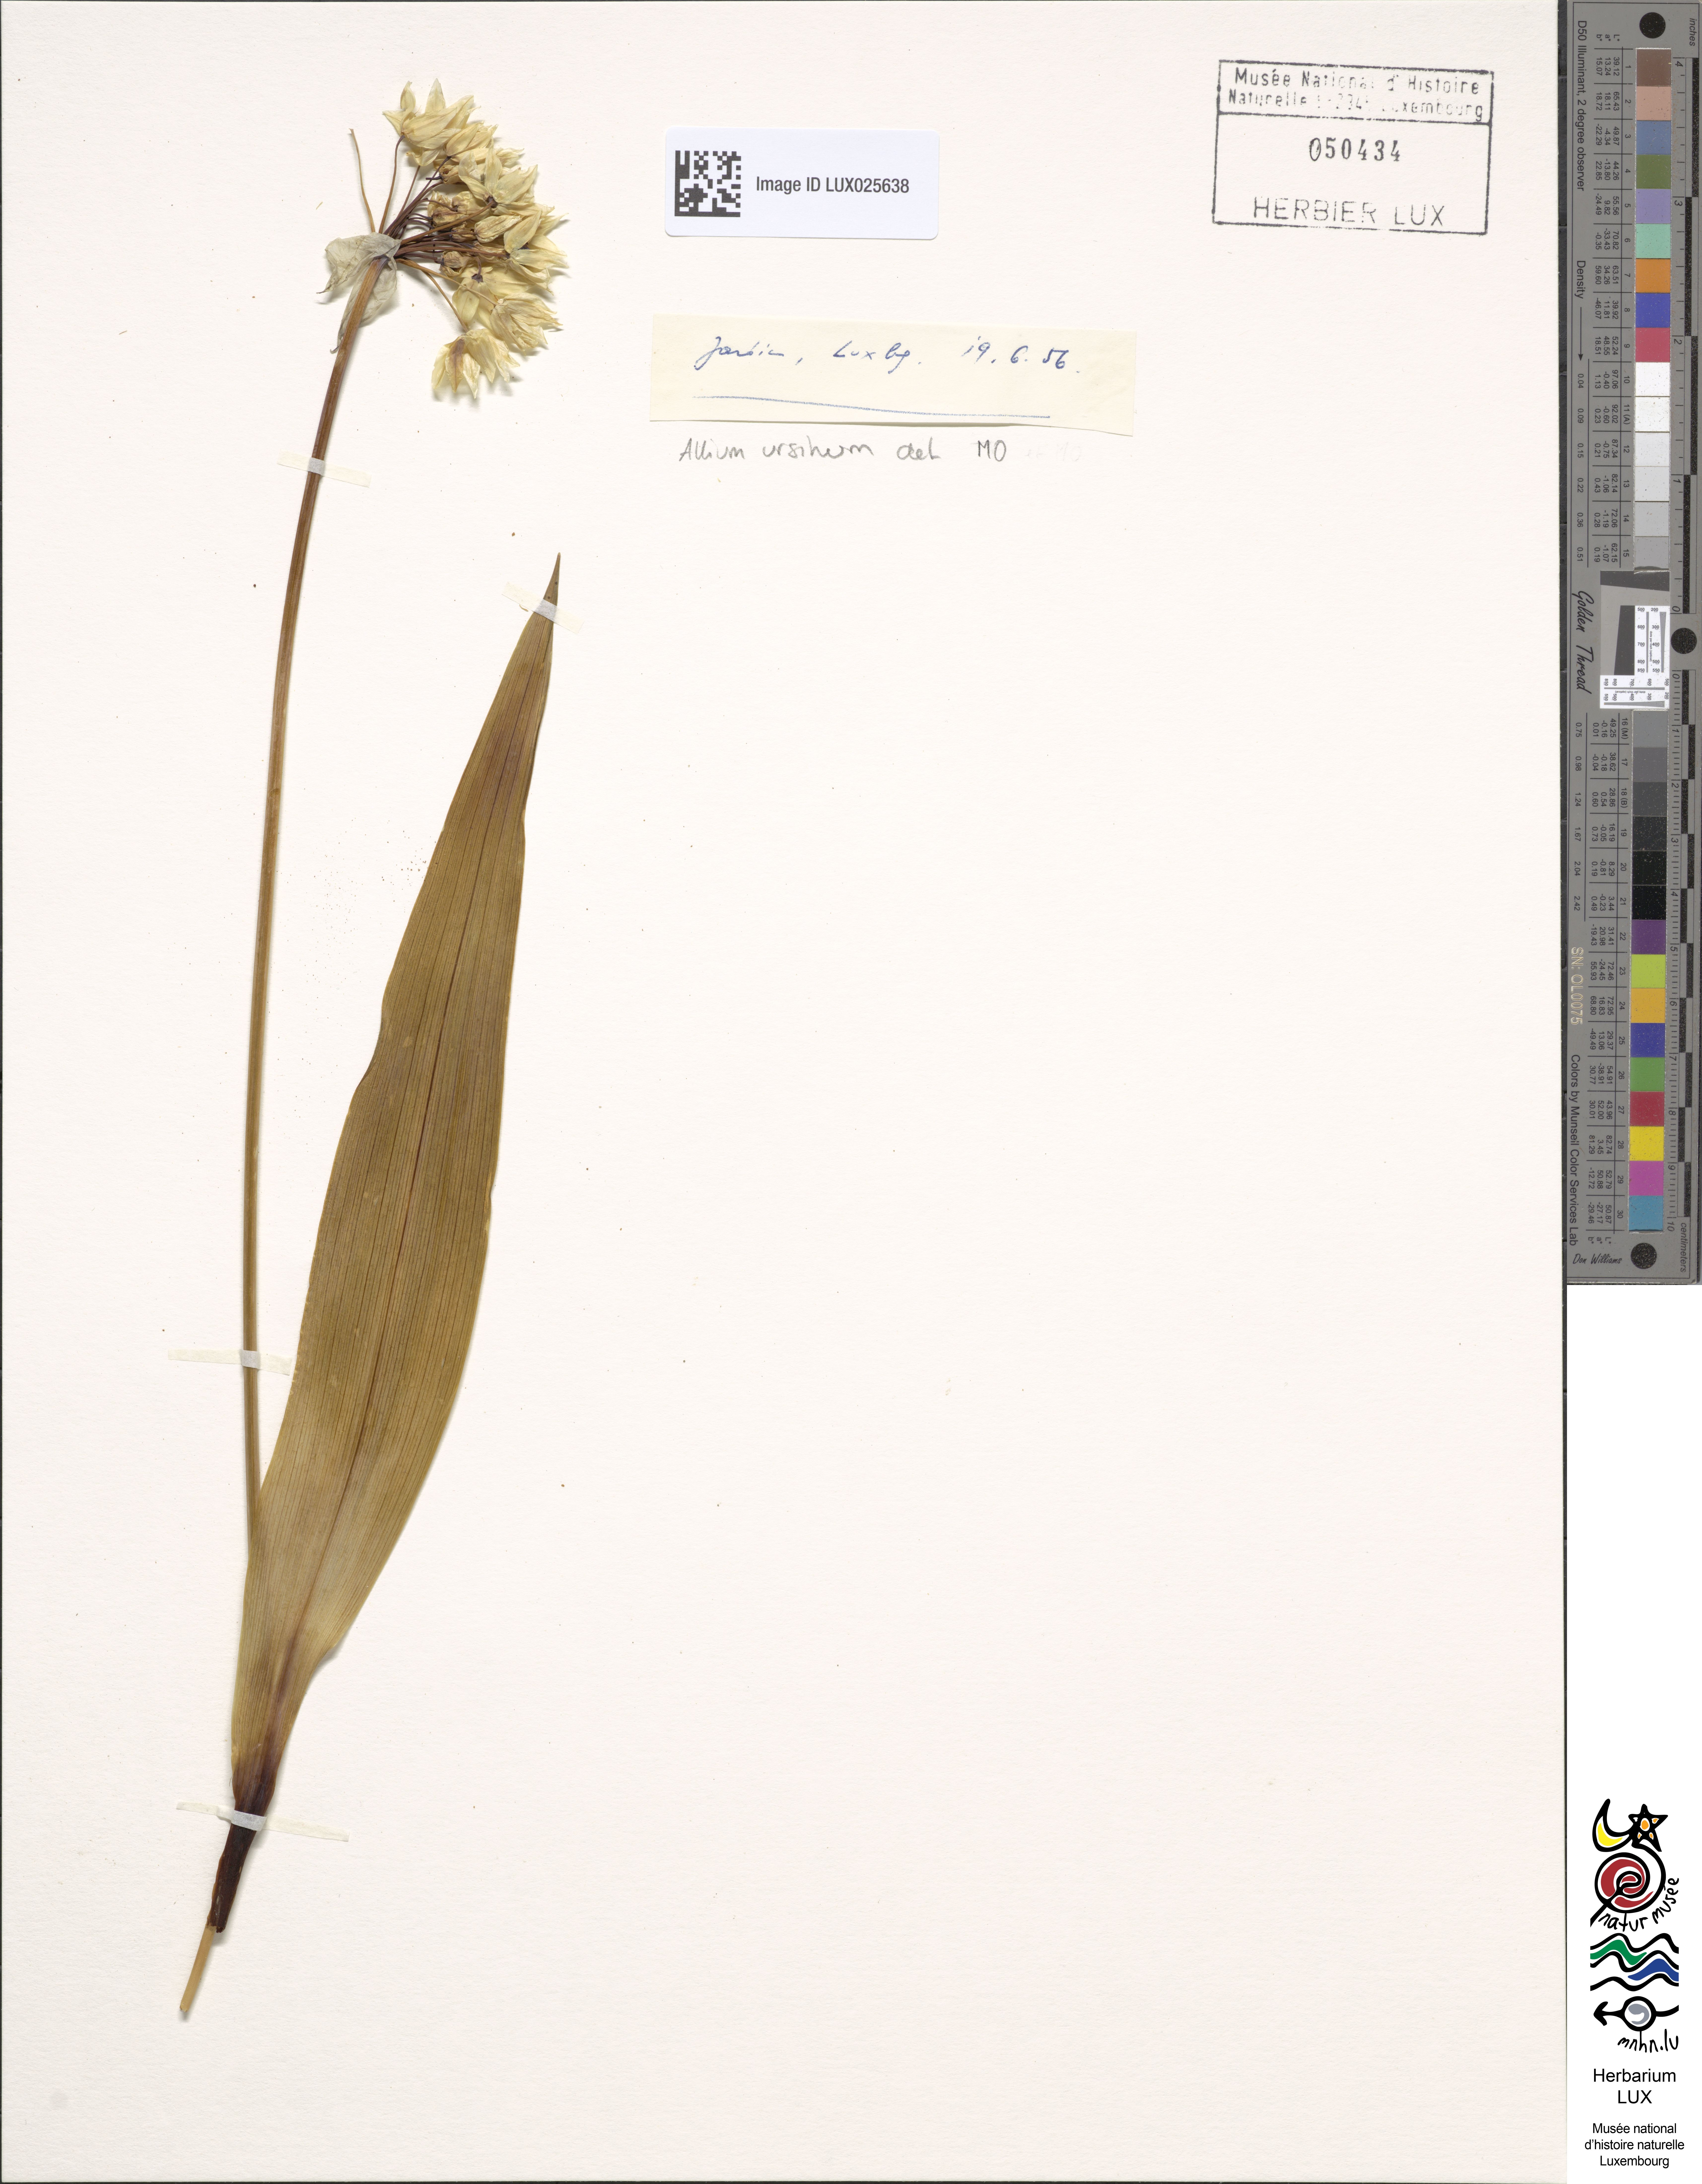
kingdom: Plantae
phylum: Tracheophyta
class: Liliopsida
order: Asparagales
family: Amaryllidaceae
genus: Allium
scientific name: Allium ursinum
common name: Ramsons
